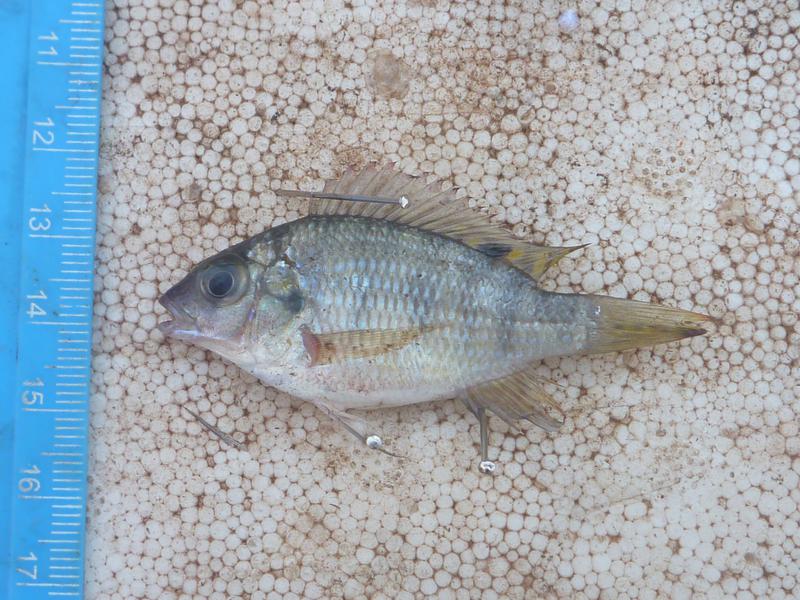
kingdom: Animalia
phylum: Chordata
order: Perciformes
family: Cichlidae
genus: Coptodon
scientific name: Coptodon rendalli
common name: Redbreast tilapia
